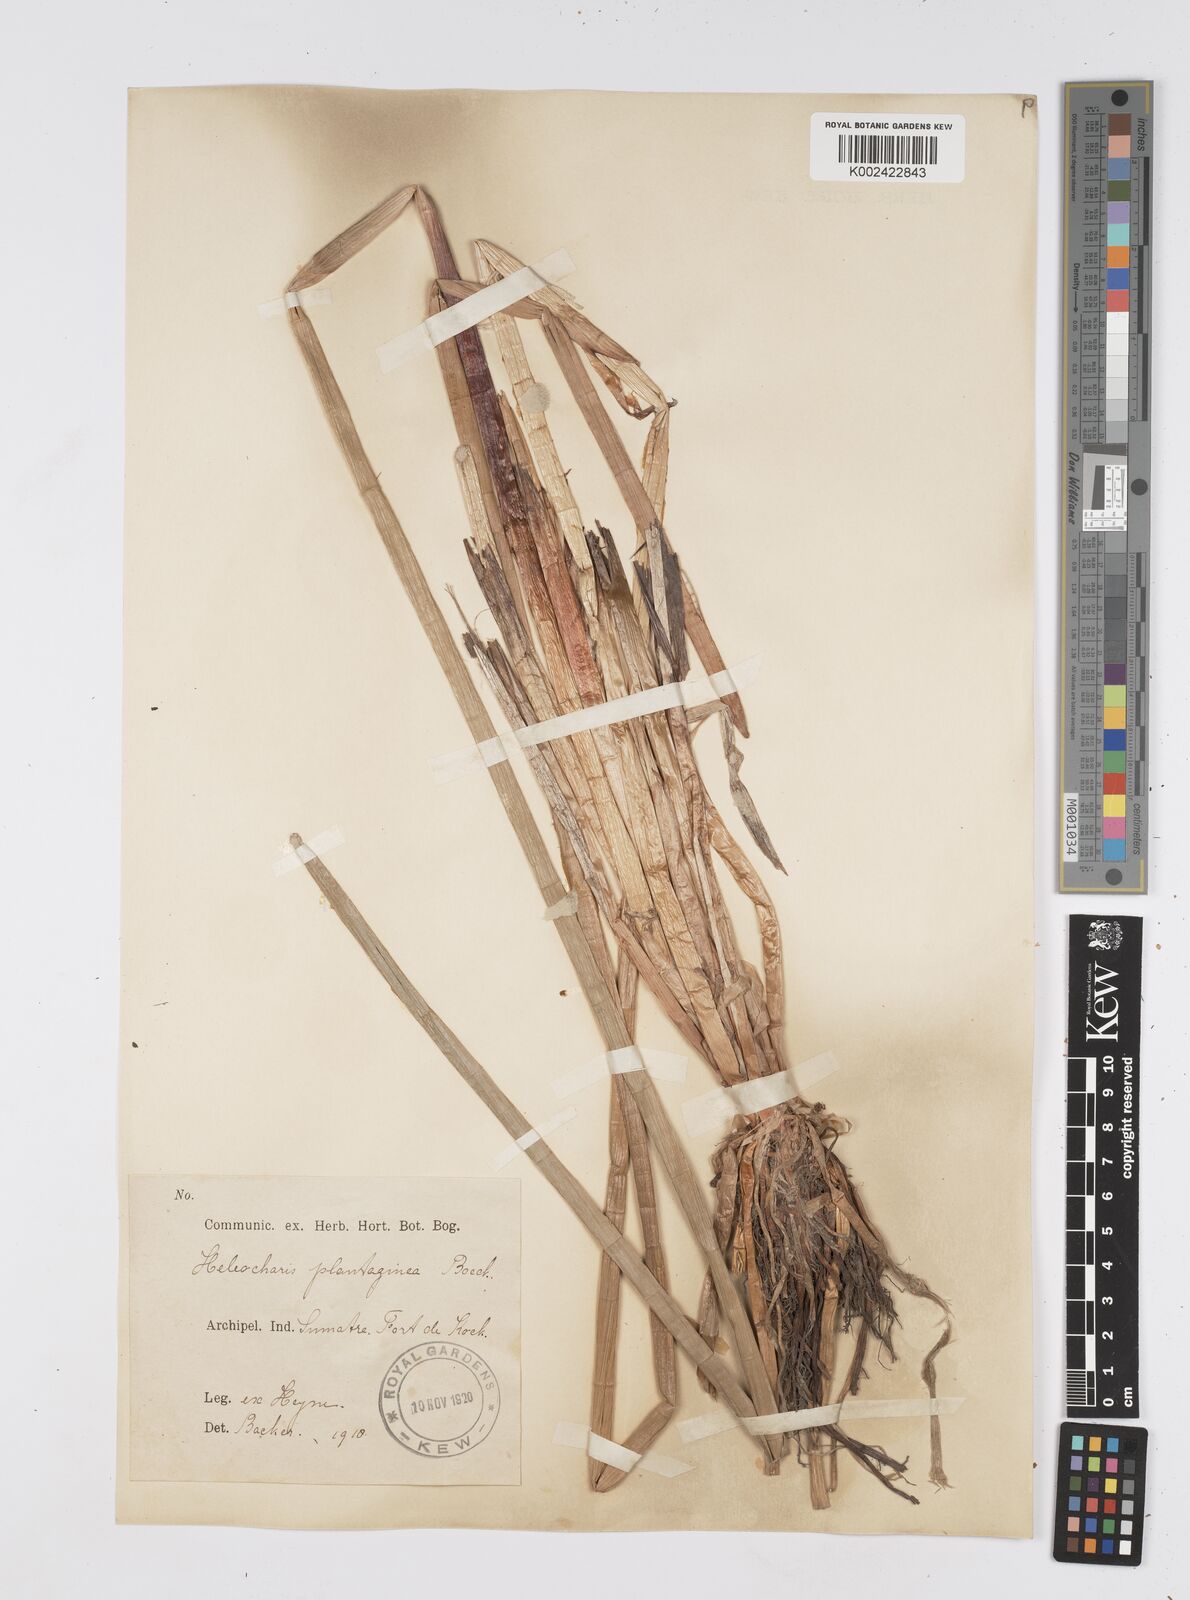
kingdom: Plantae
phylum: Tracheophyta
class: Liliopsida
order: Poales
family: Cyperaceae
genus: Eleocharis
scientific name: Eleocharis dulcis
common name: Chinese water chestnut
